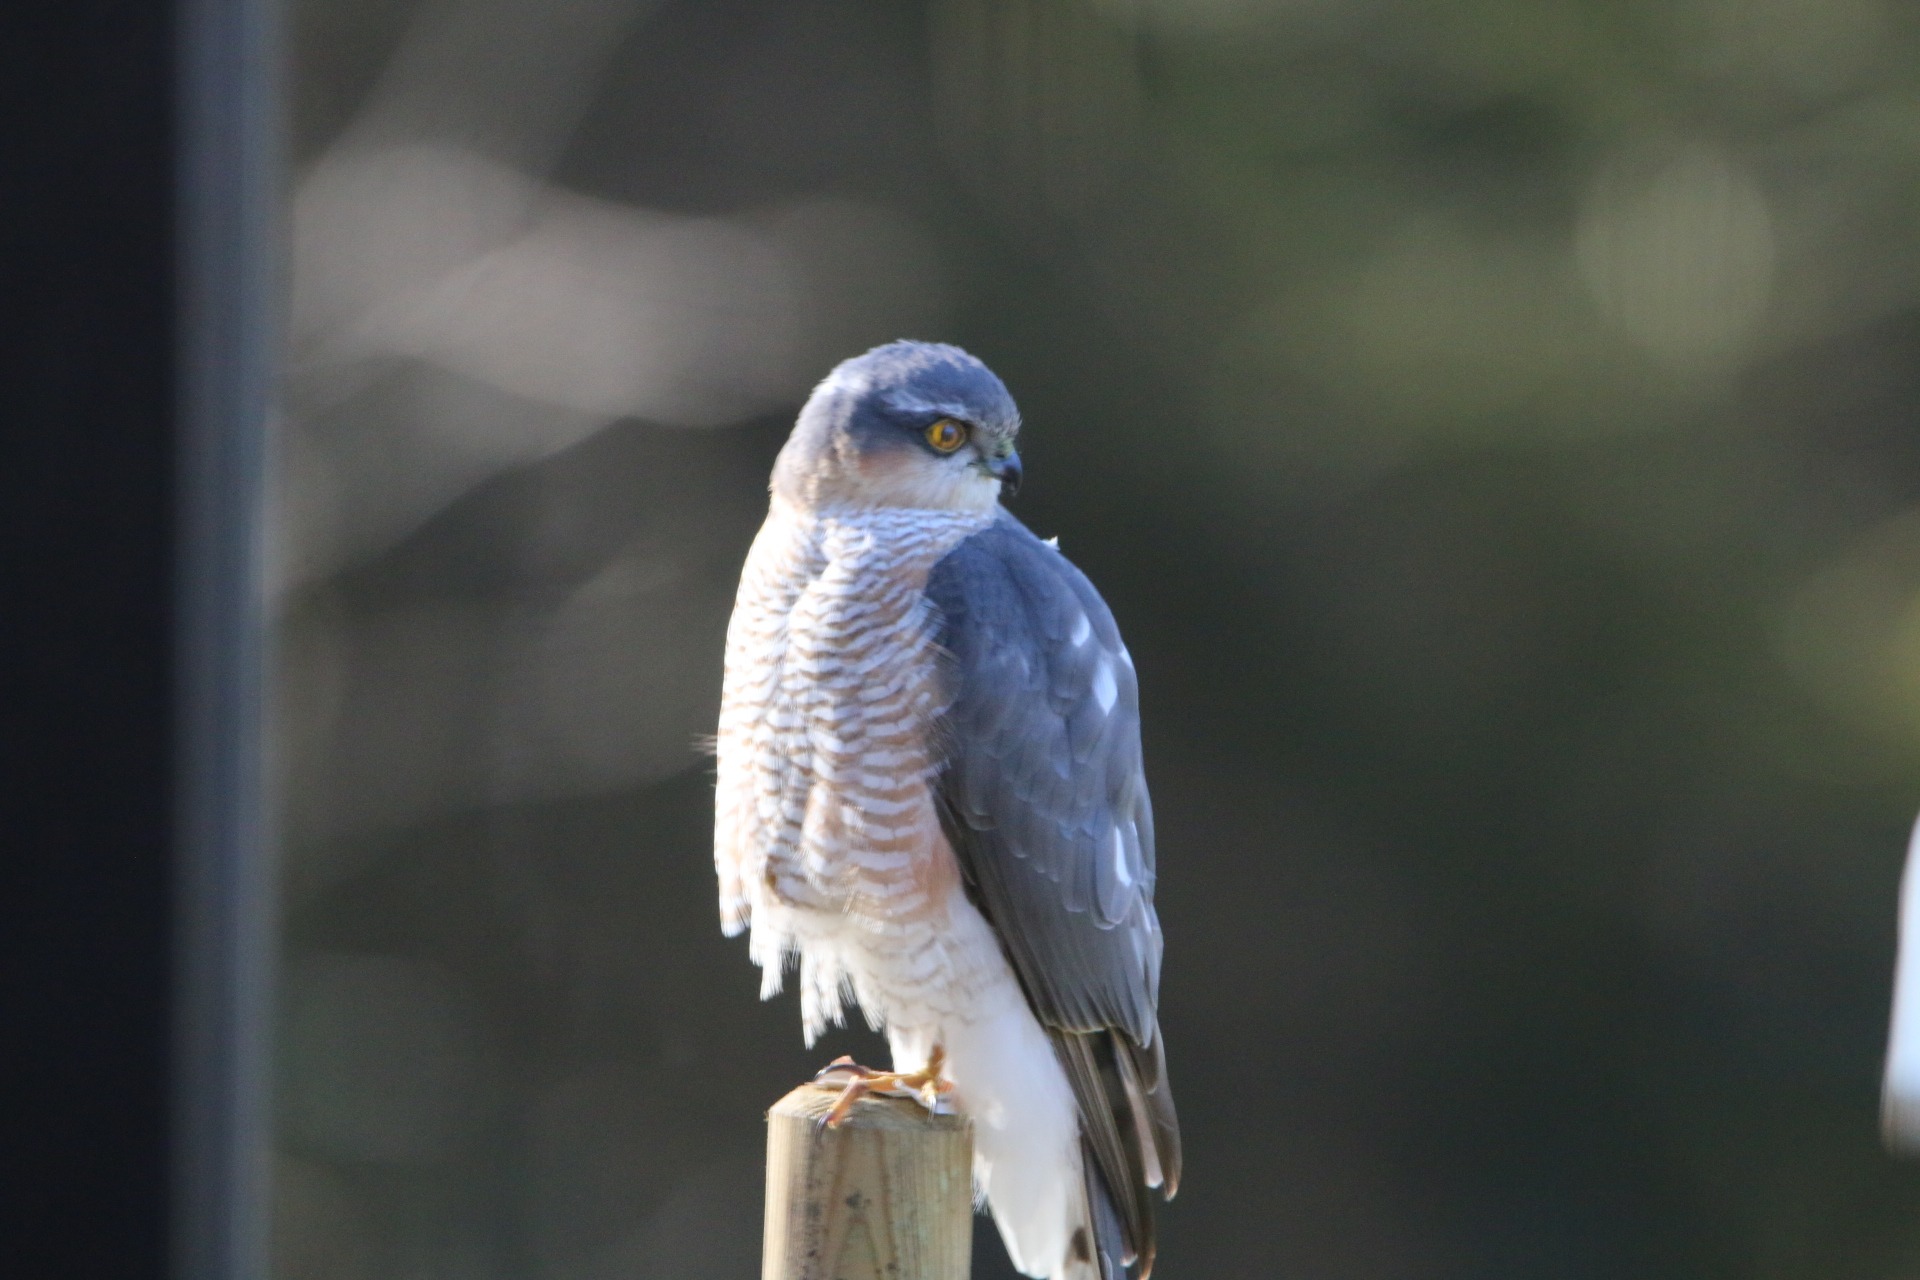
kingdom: Animalia
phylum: Chordata
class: Aves
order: Accipitriformes
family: Accipitridae
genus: Accipiter
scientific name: Accipiter nisus
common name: Spurvehøg
